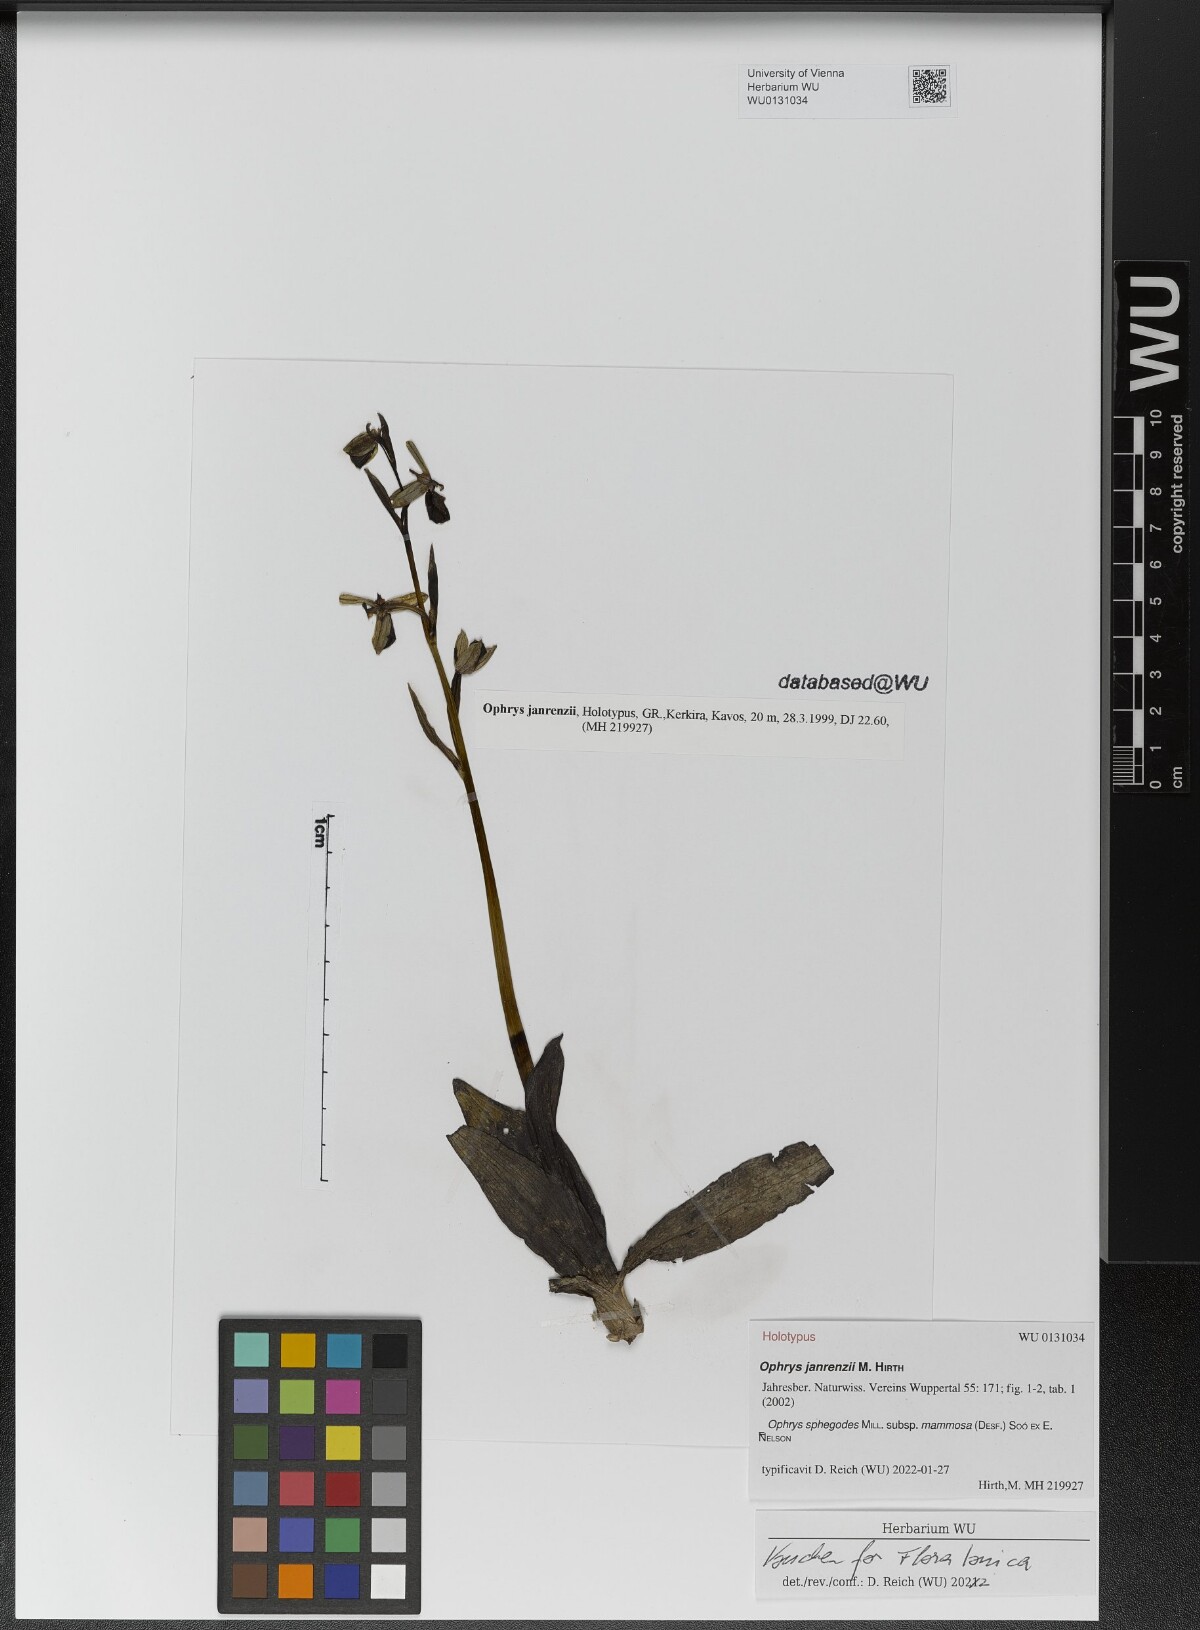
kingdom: Plantae
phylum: Tracheophyta
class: Liliopsida
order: Asparagales
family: Orchidaceae
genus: Ophrys
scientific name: Ophrys sphegodes
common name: Early spider-orchid
